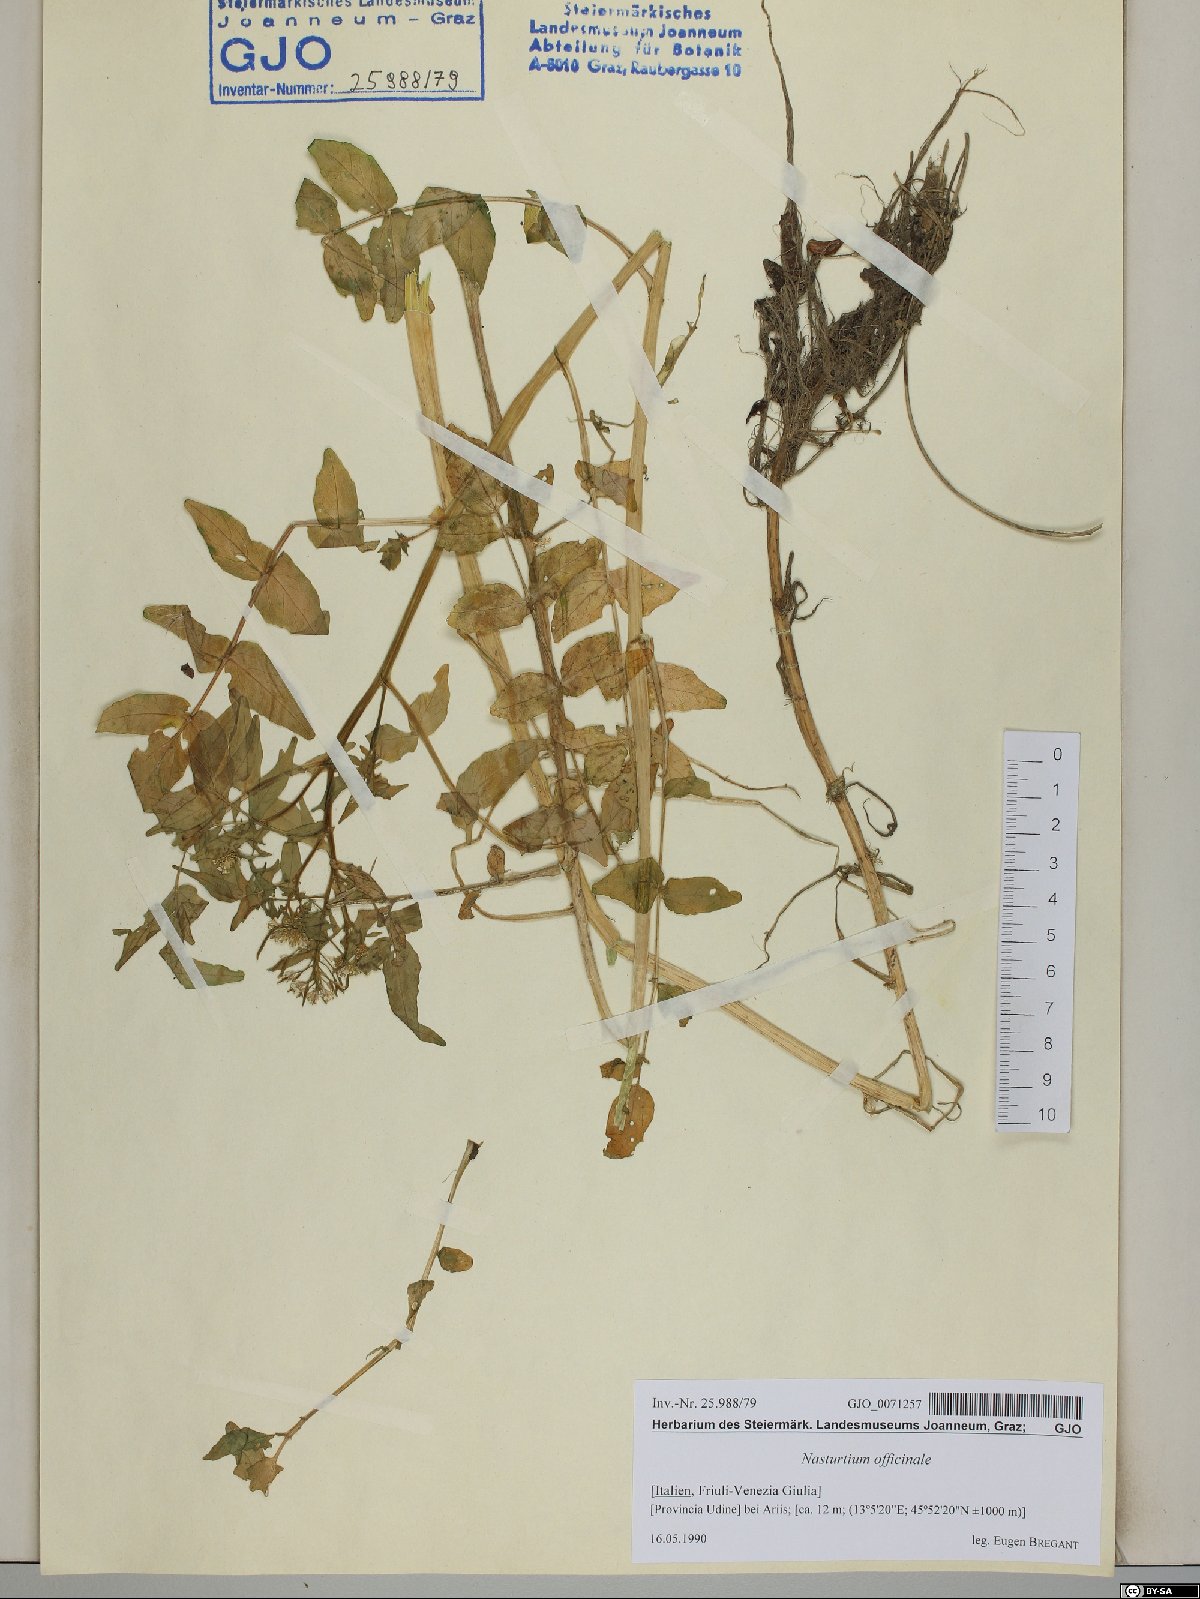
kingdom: Plantae
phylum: Tracheophyta
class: Magnoliopsida
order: Brassicales
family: Brassicaceae
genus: Nasturtium
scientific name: Nasturtium officinale
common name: Watercress
